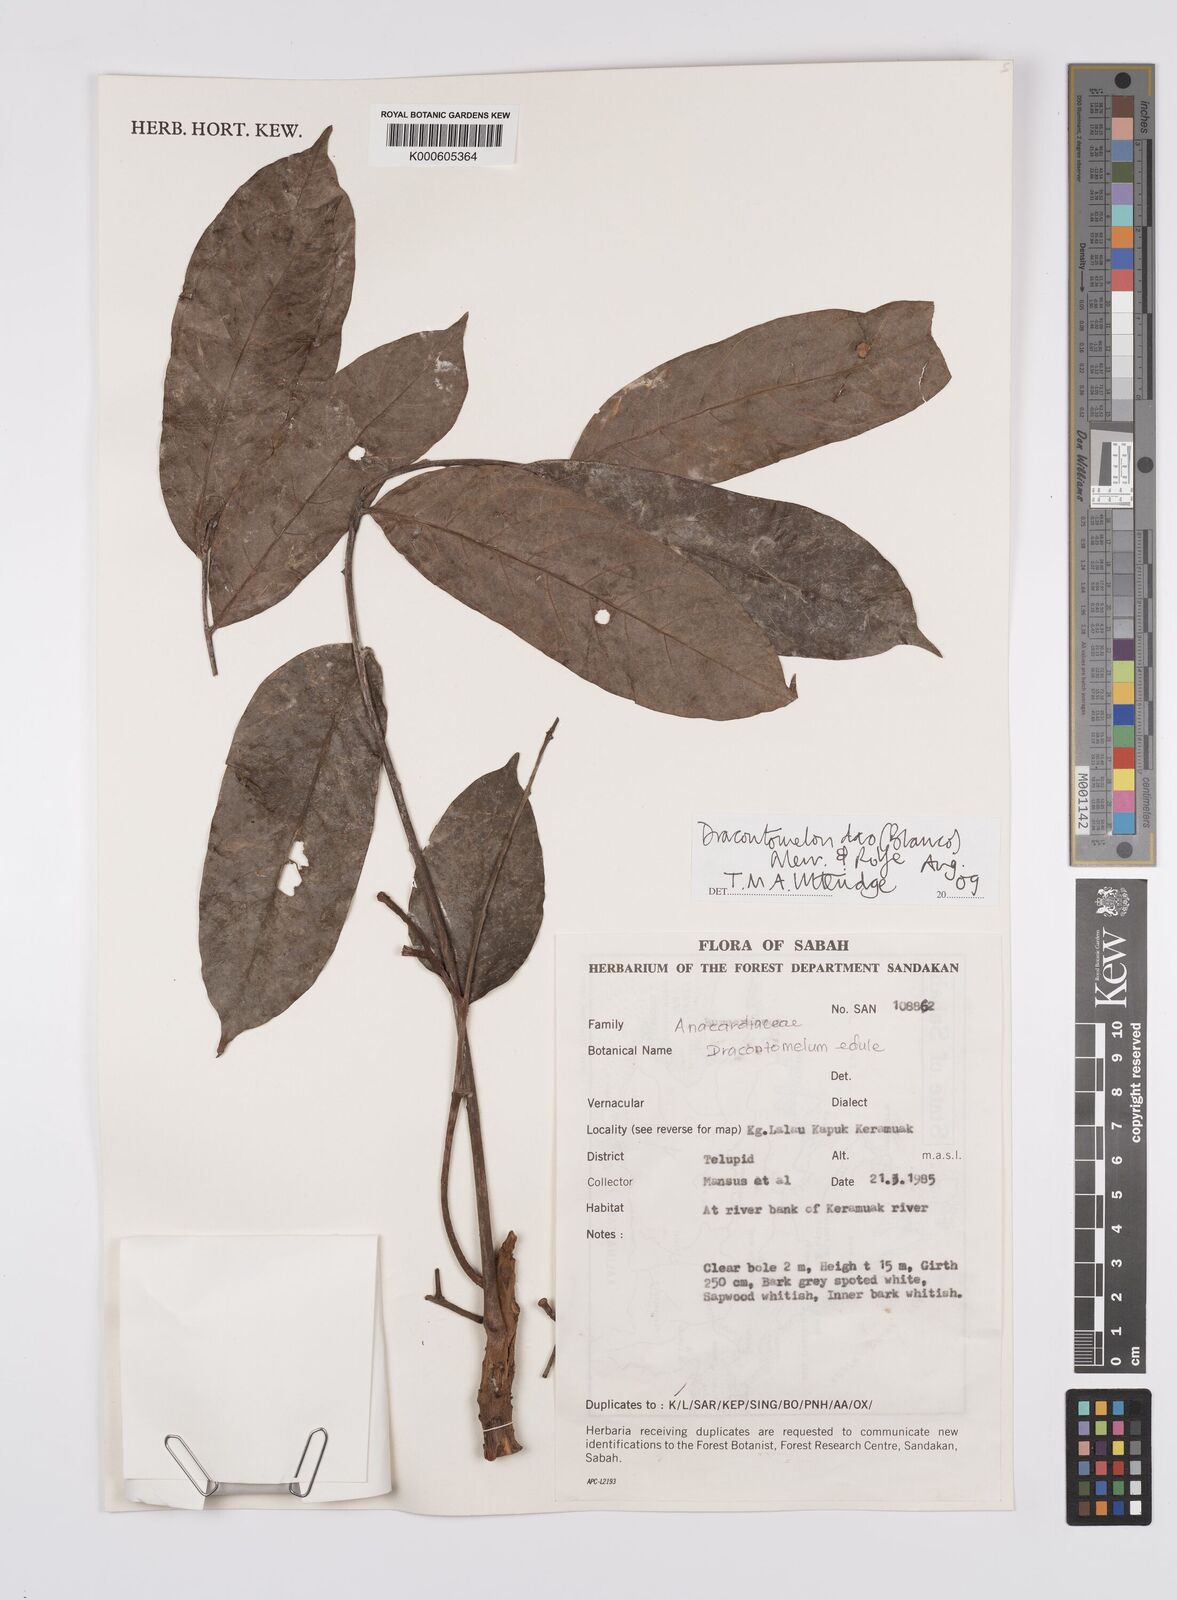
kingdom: Plantae
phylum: Tracheophyta
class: Magnoliopsida
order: Sapindales
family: Anacardiaceae
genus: Dracontomelon
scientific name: Dracontomelon dao
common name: Argus pheasant-tree
